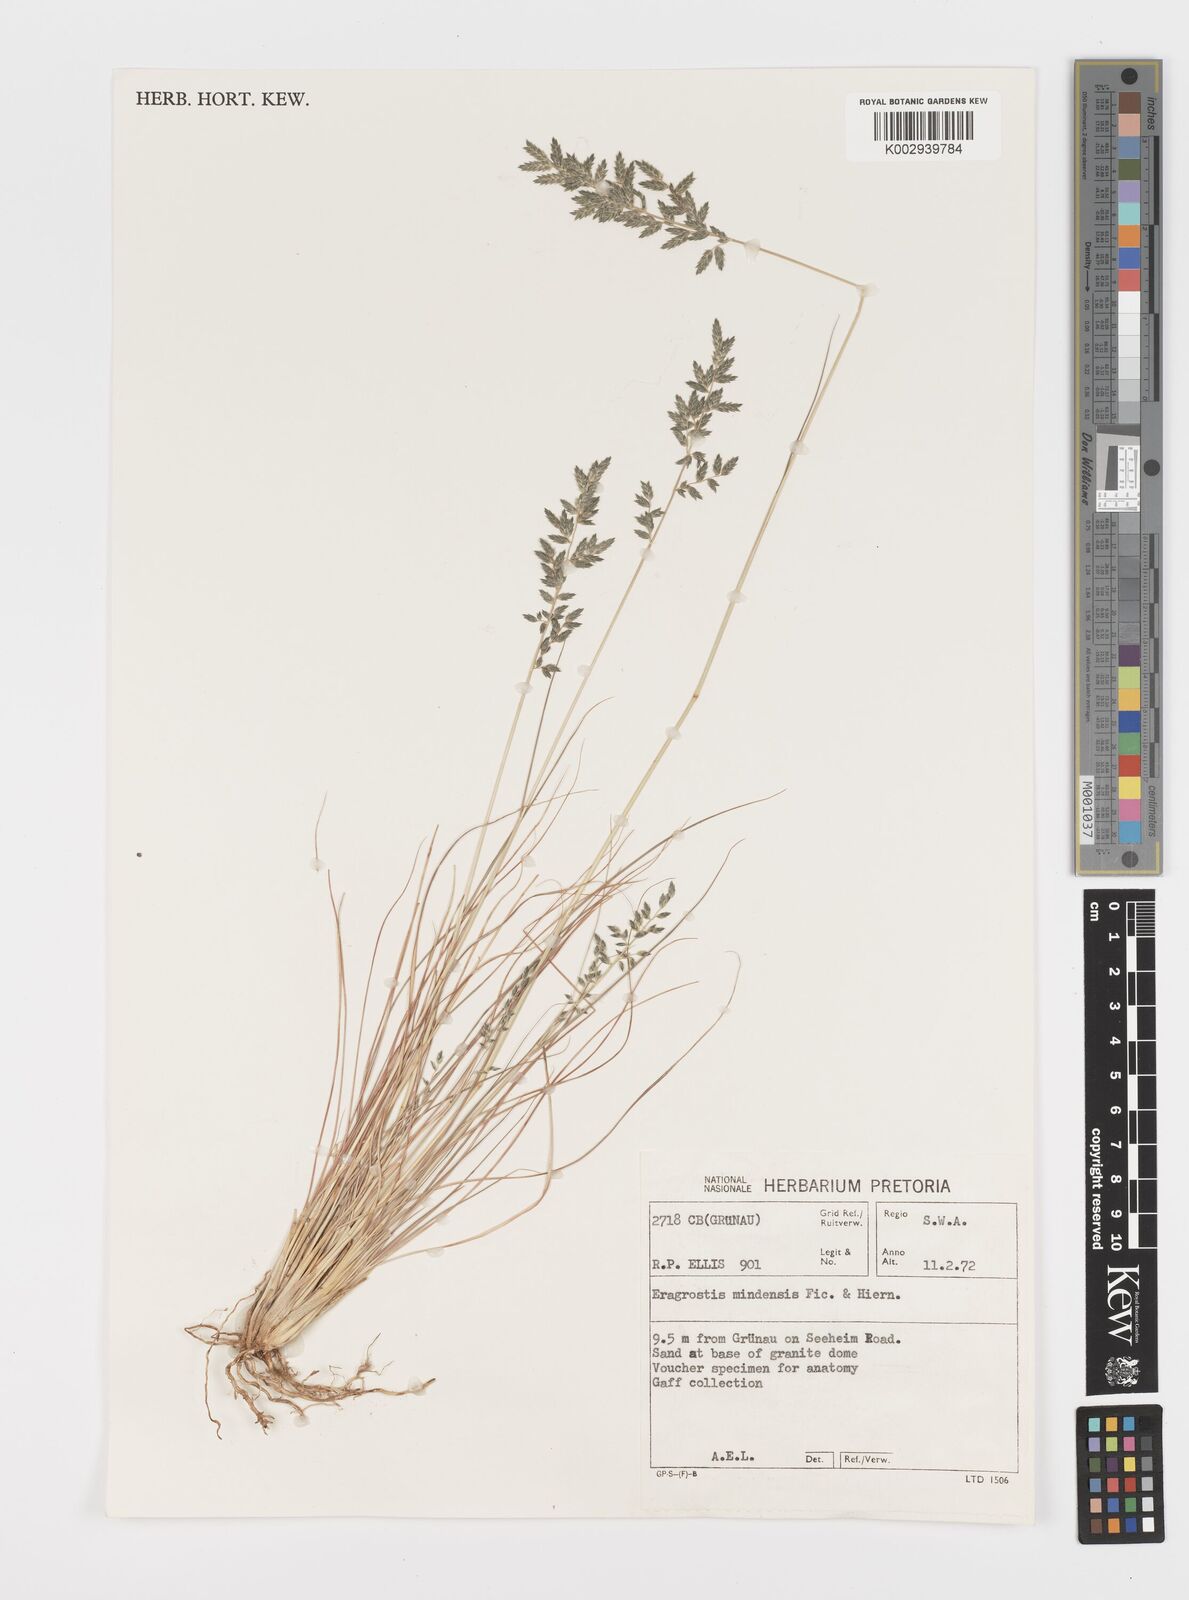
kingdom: Plantae
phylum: Tracheophyta
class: Liliopsida
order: Poales
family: Poaceae
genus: Eragrostis
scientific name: Eragrostis nindensis
